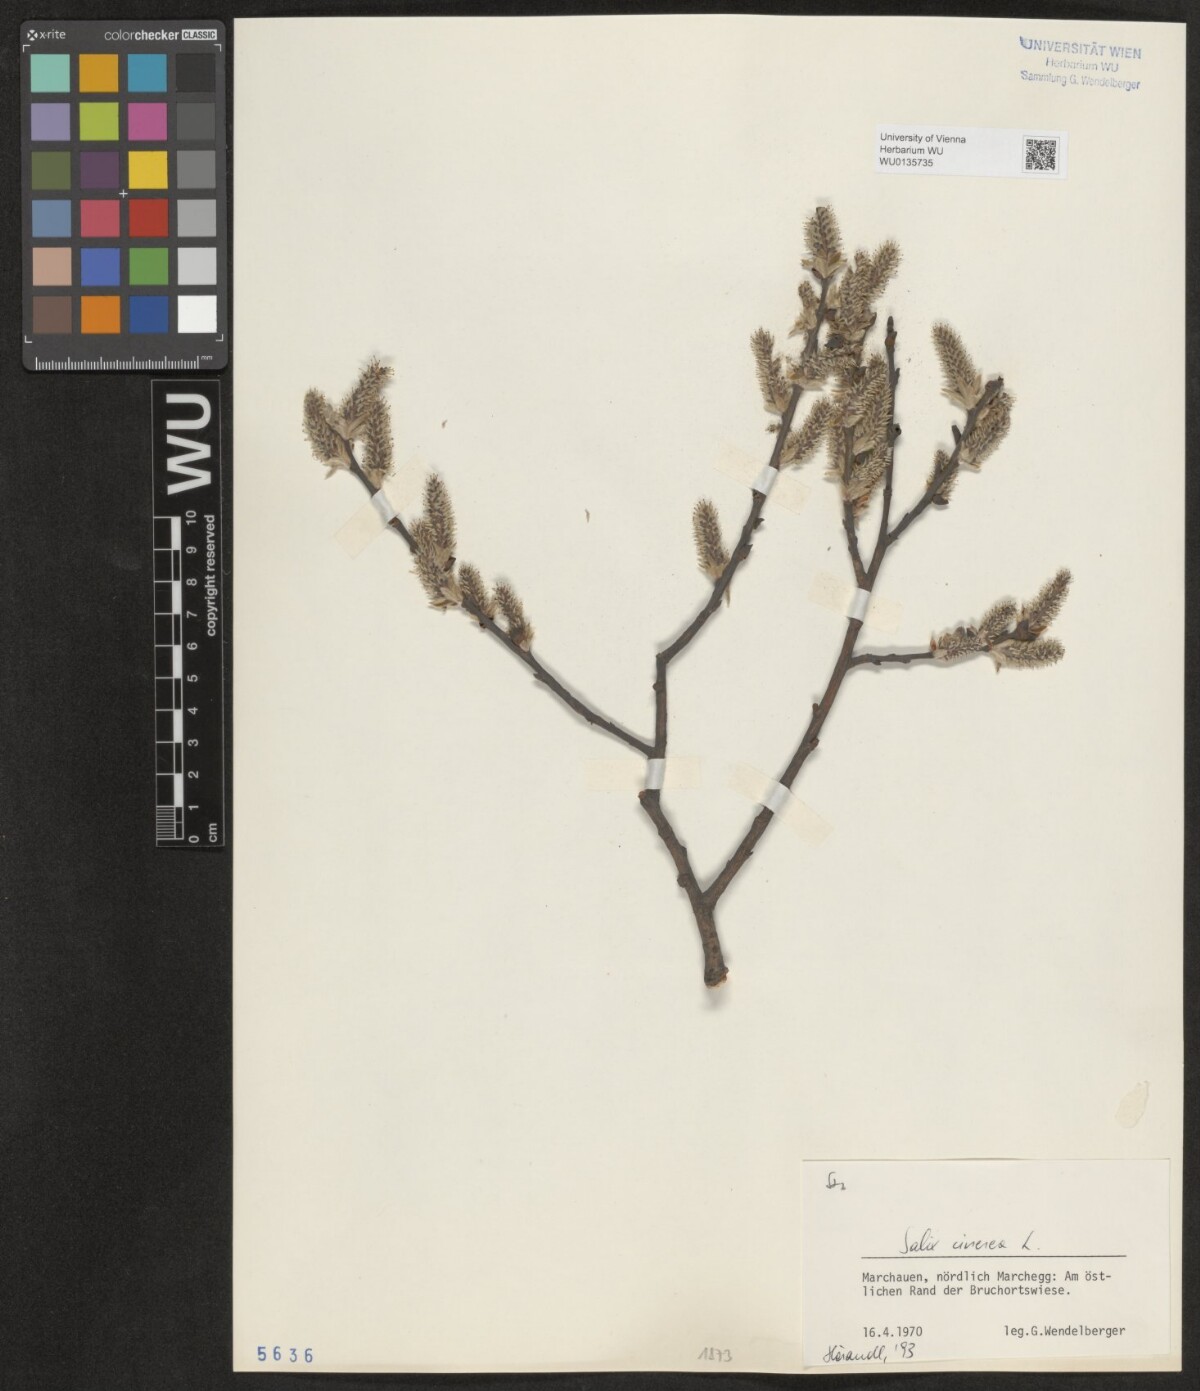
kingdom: Plantae
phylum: Tracheophyta
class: Magnoliopsida
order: Malpighiales
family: Salicaceae
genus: Salix
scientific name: Salix cinerea
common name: Common sallow
